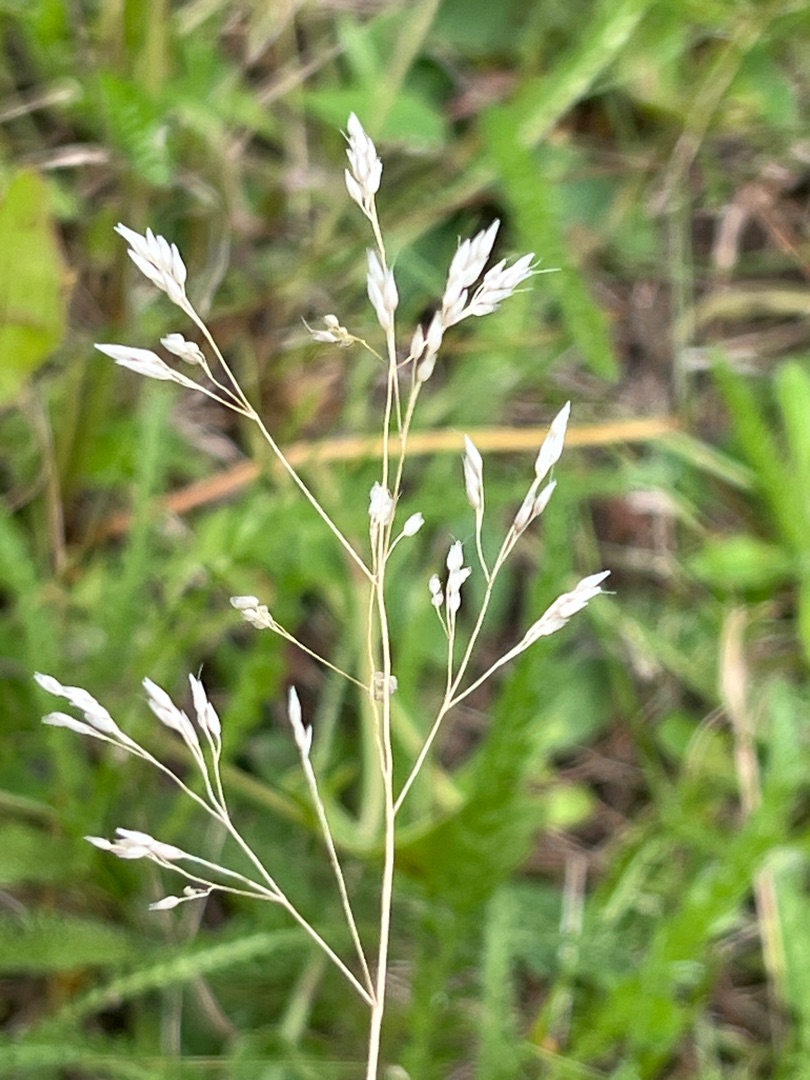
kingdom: Plantae
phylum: Tracheophyta
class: Liliopsida
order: Poales
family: Poaceae
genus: Avenella
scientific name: Avenella flexuosa
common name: Bølget bunke
